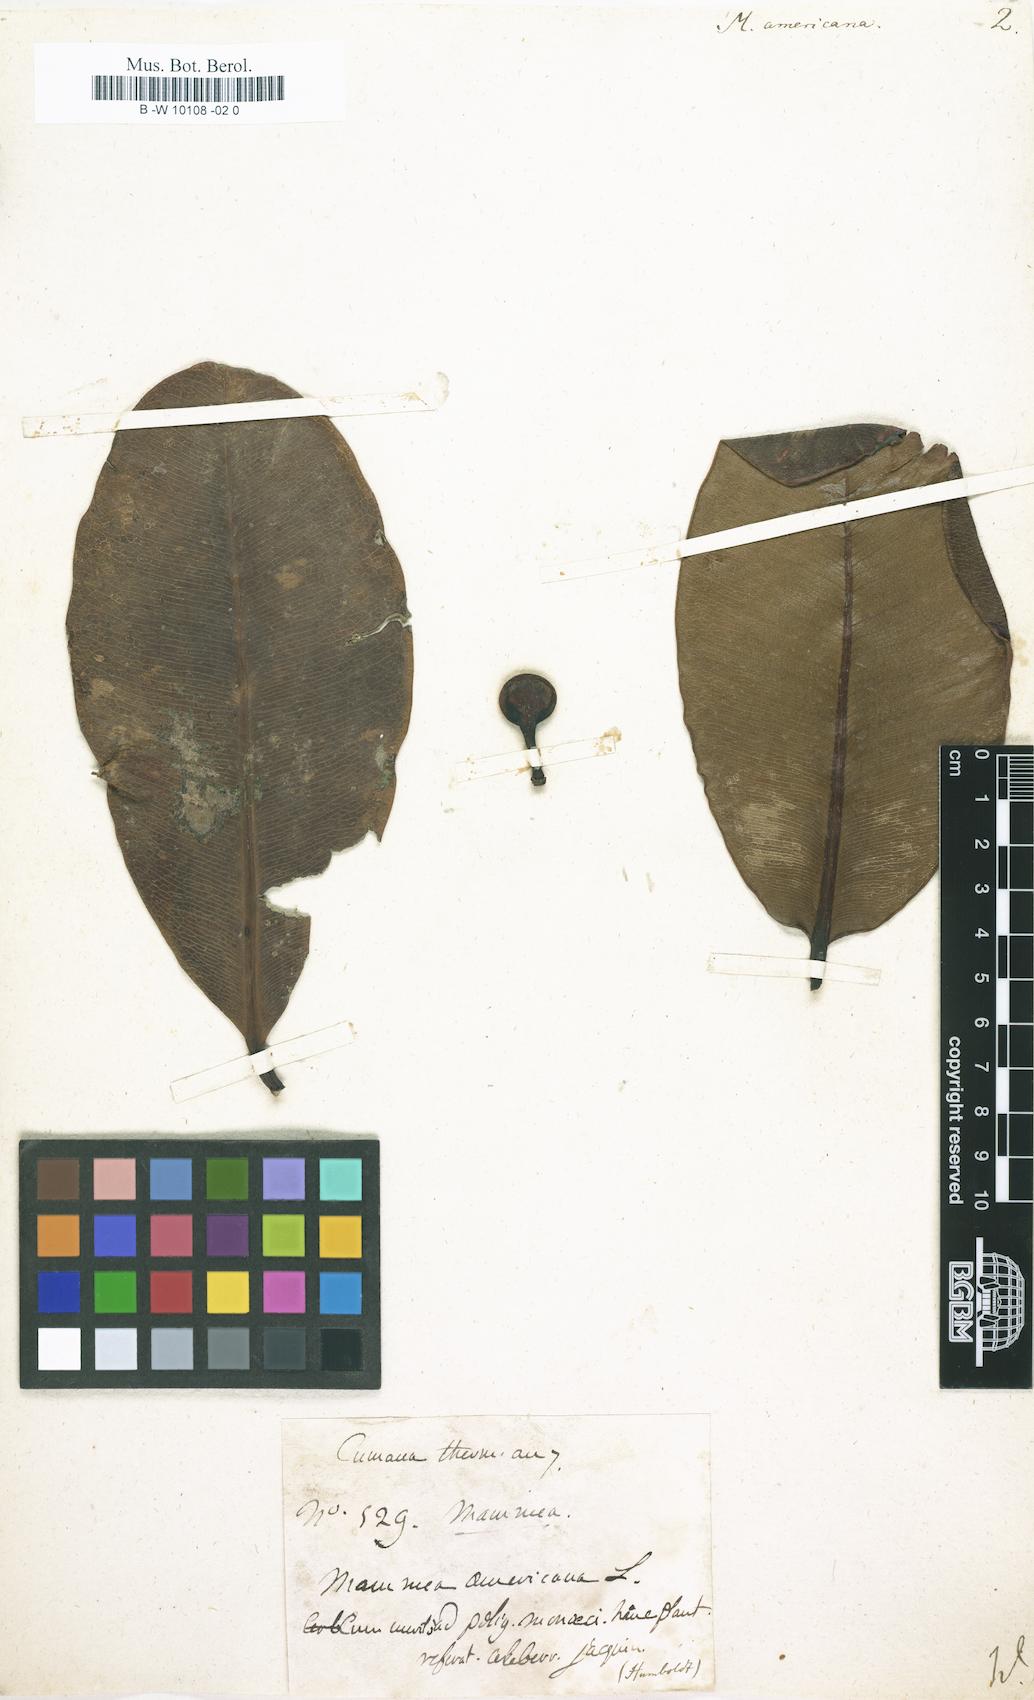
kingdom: Plantae
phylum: Tracheophyta
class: Magnoliopsida
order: Malpighiales
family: Calophyllaceae
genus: Mammea
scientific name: Mammea americana
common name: Mamey
